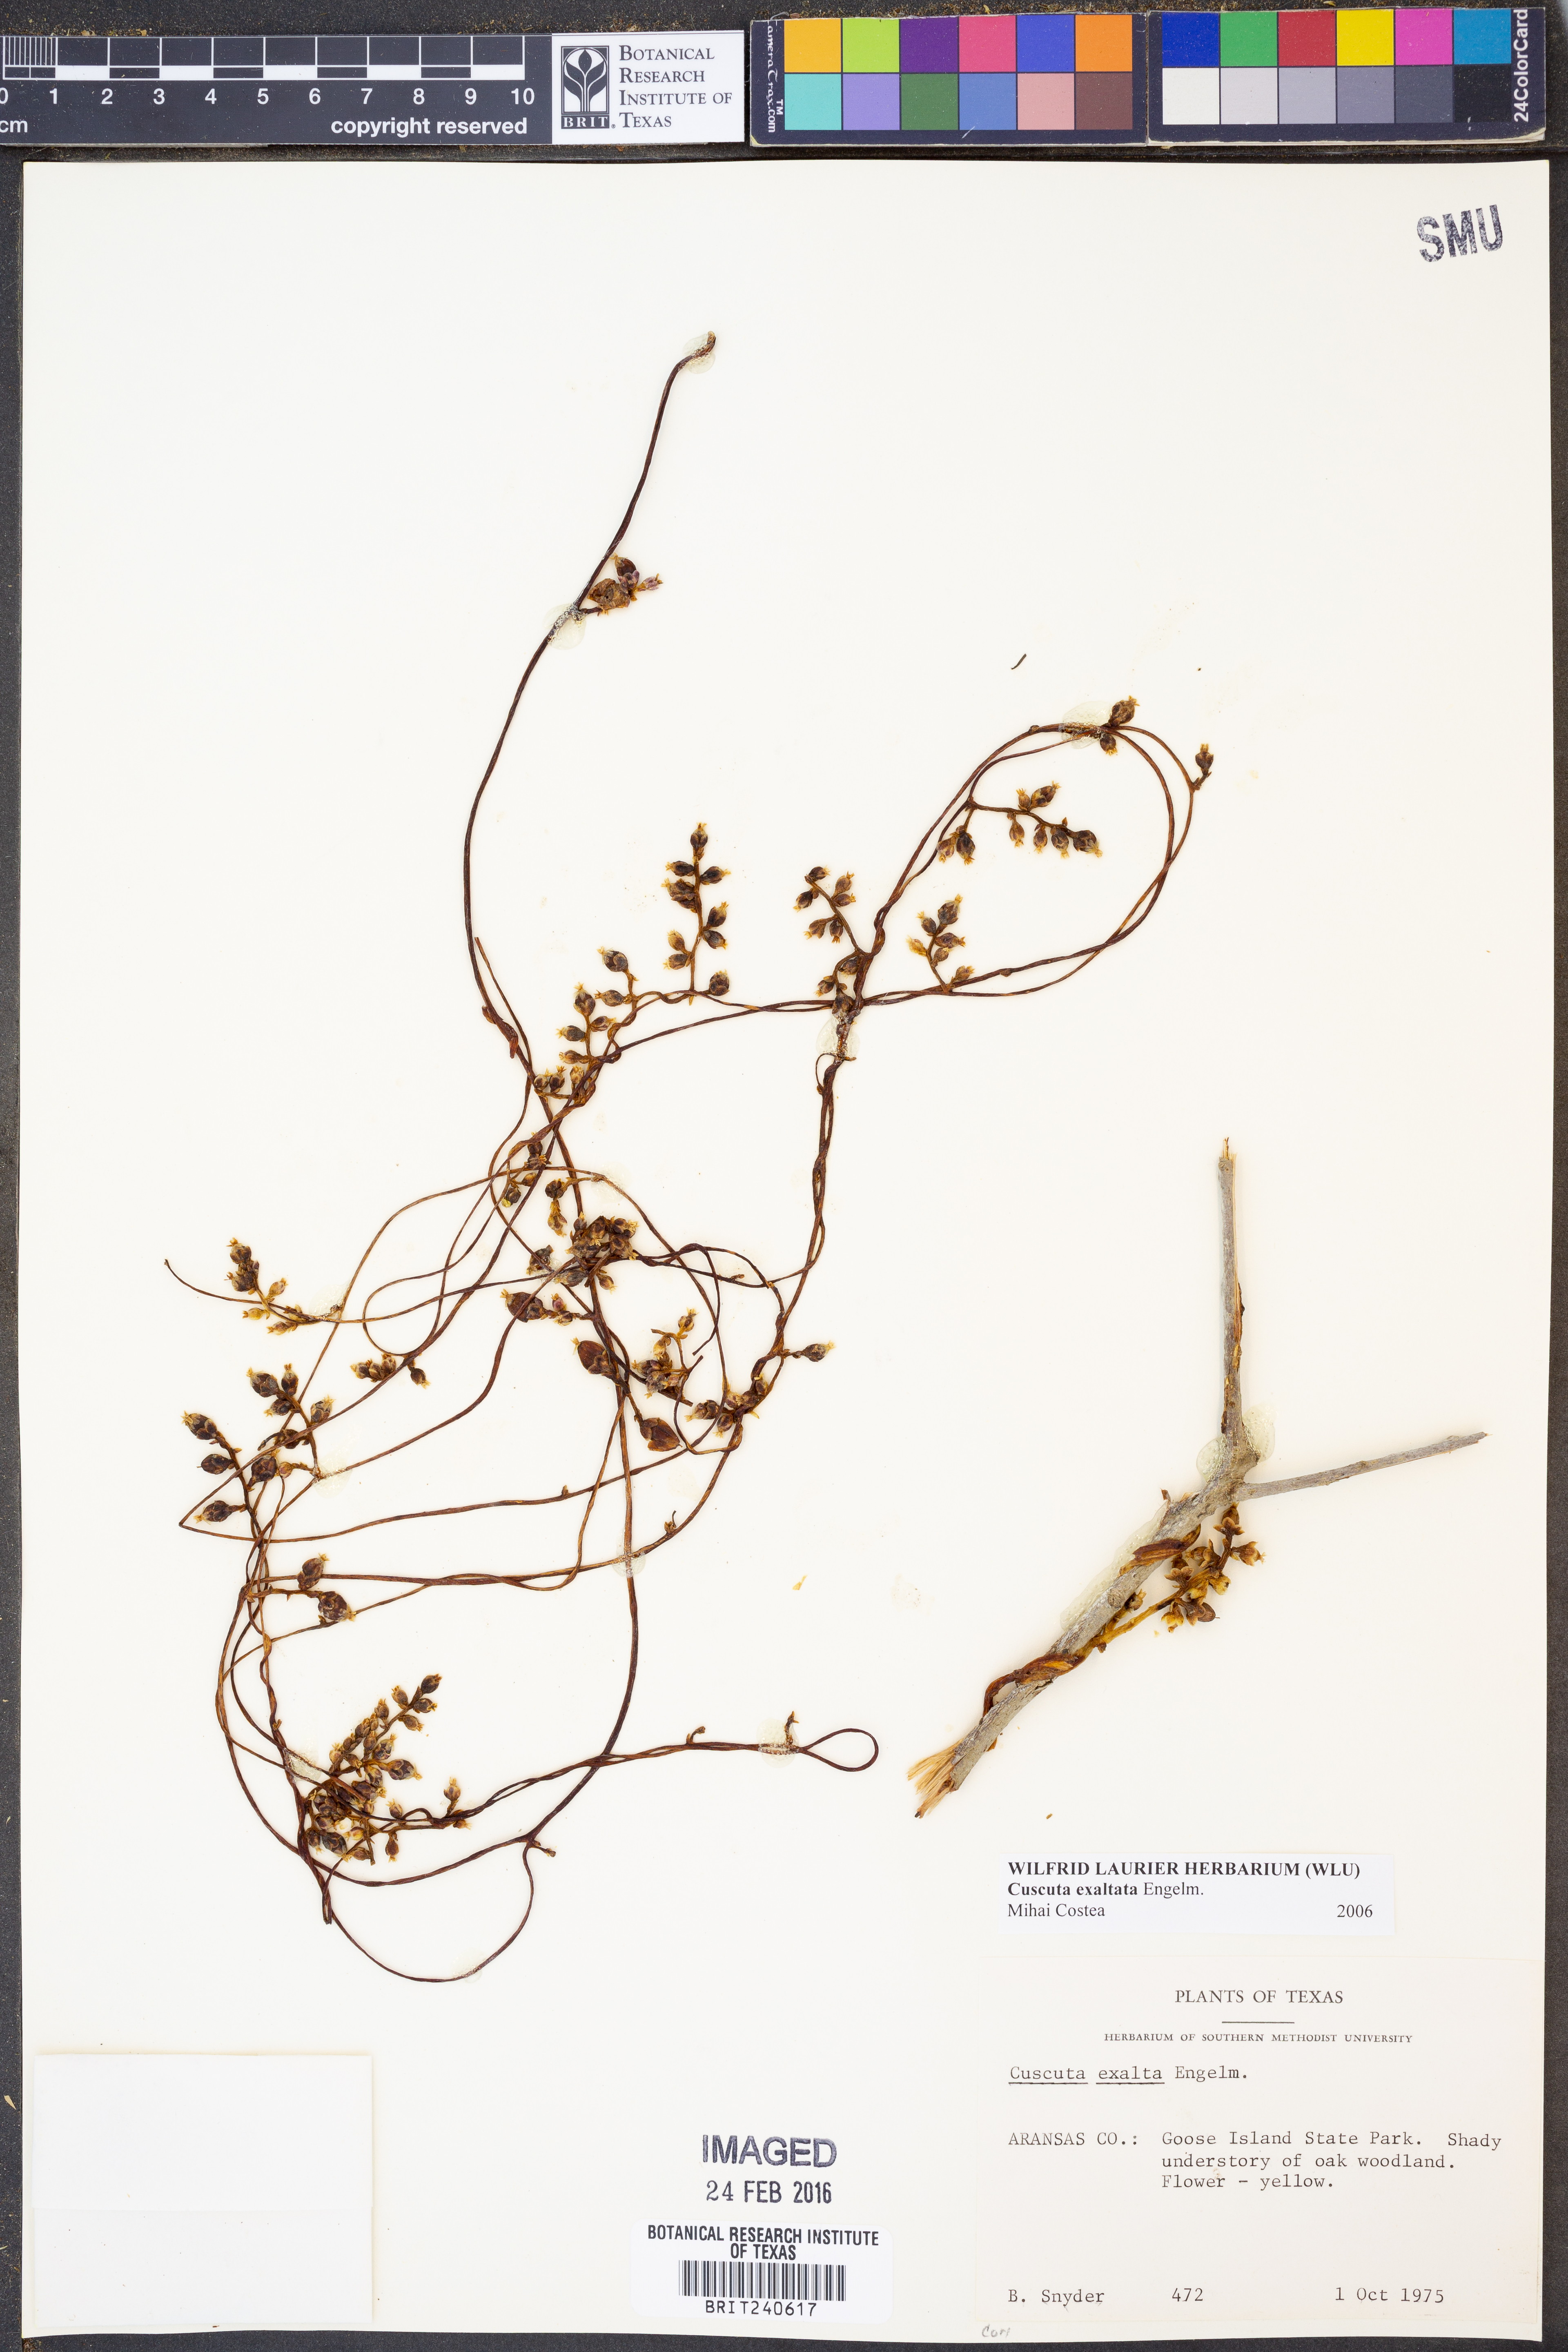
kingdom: Plantae
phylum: Tracheophyta
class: Magnoliopsida
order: Solanales
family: Convolvulaceae
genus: Cuscuta
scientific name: Cuscuta exaltata
